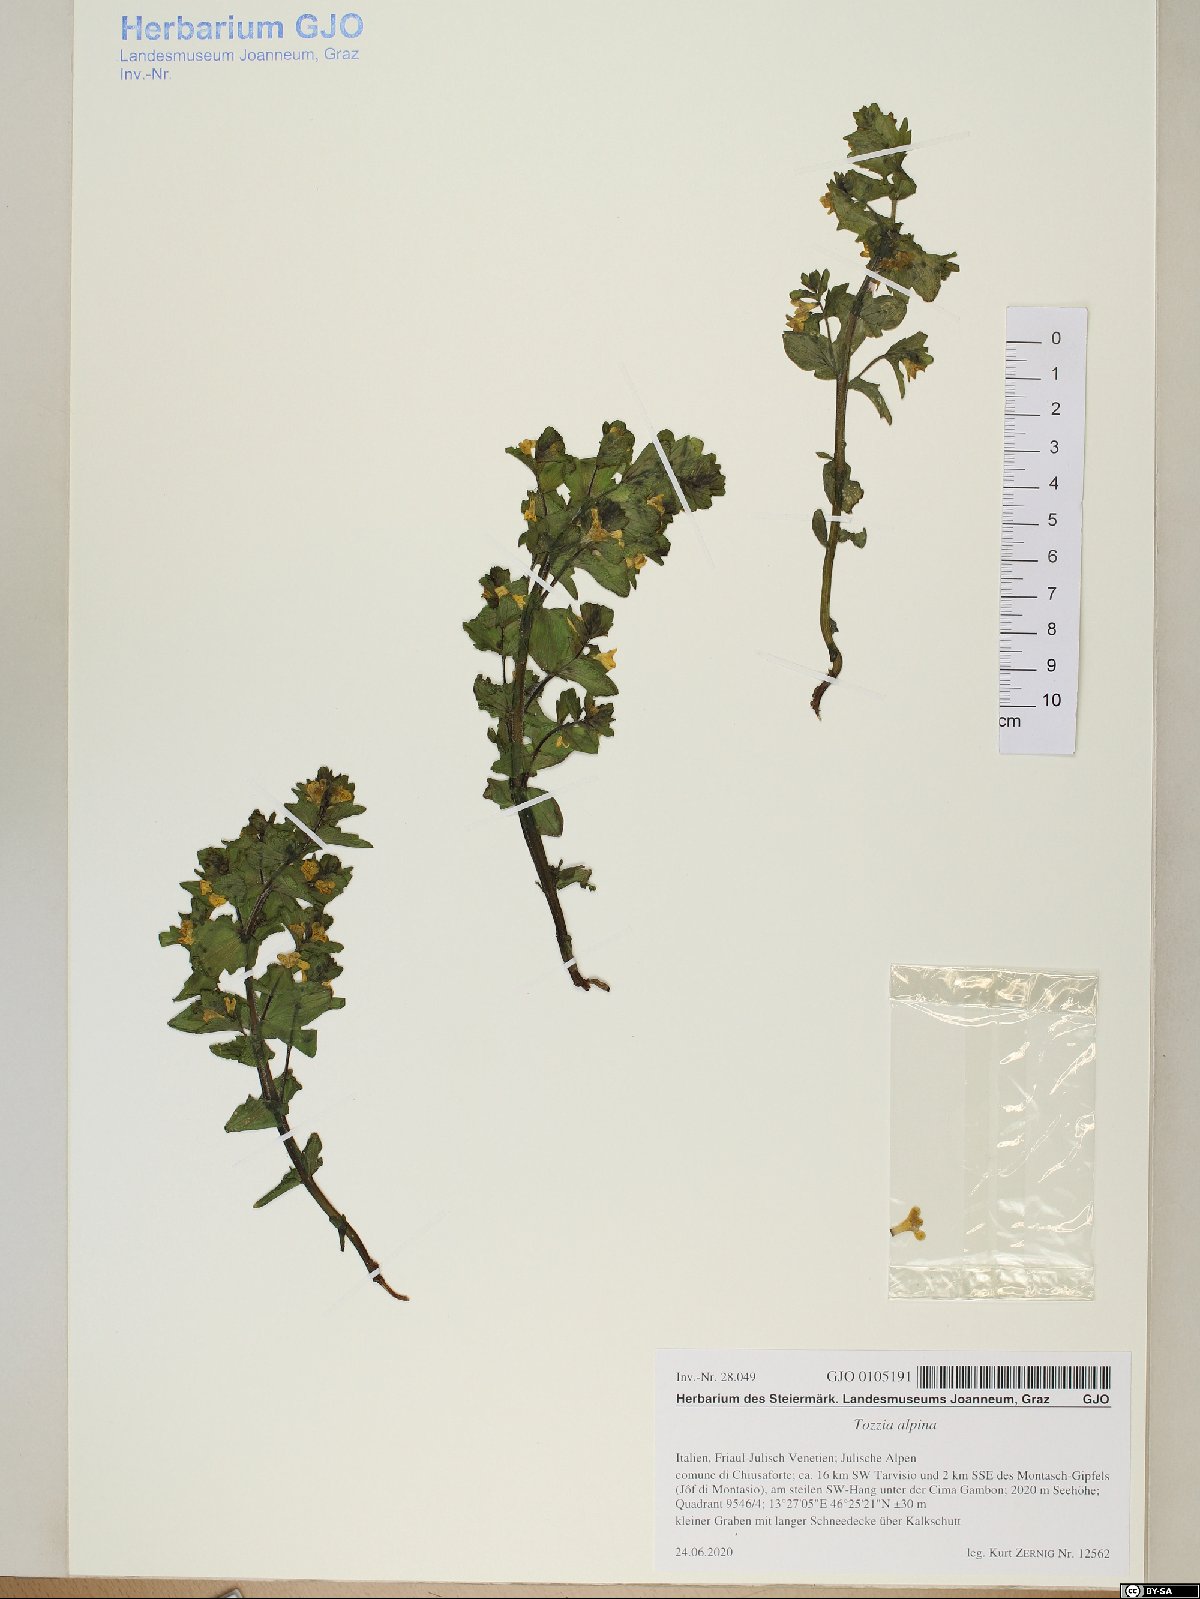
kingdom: Plantae
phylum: Tracheophyta
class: Magnoliopsida
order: Lamiales
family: Orobanchaceae
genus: Tozzia
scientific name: Tozzia alpina
